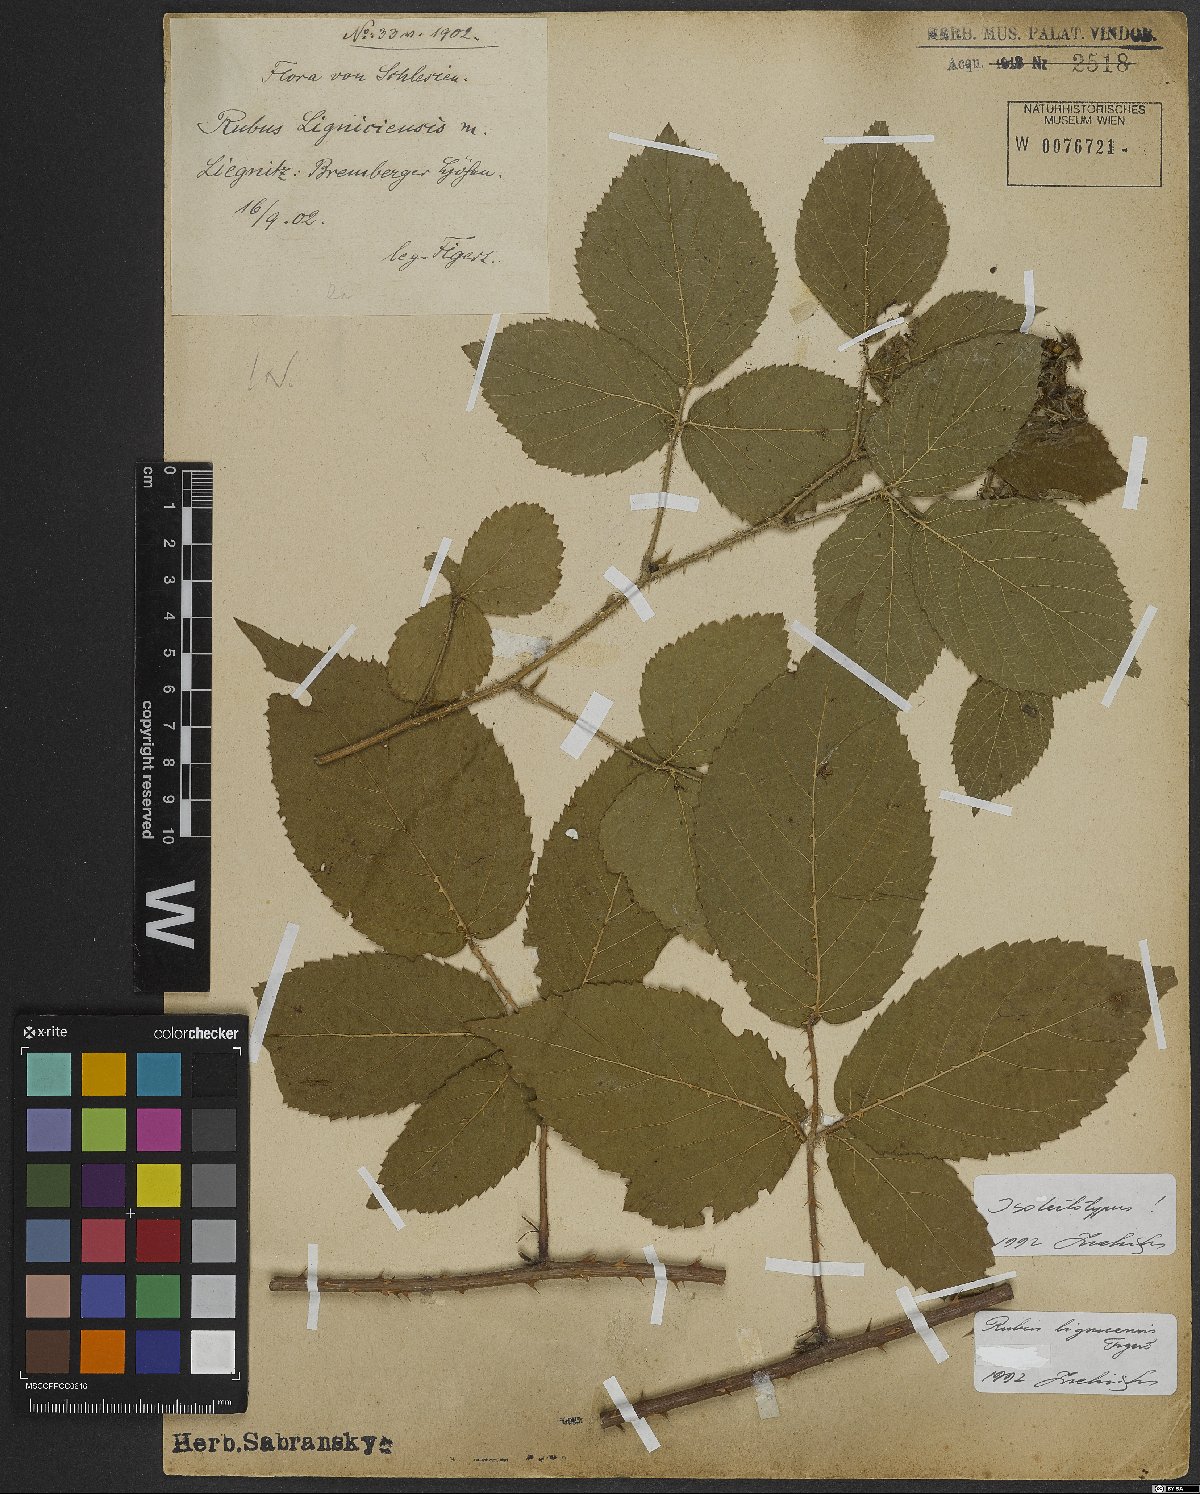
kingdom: Plantae
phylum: Tracheophyta
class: Magnoliopsida
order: Rosales
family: Rosaceae
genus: Rubus
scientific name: Rubus lignicensis
